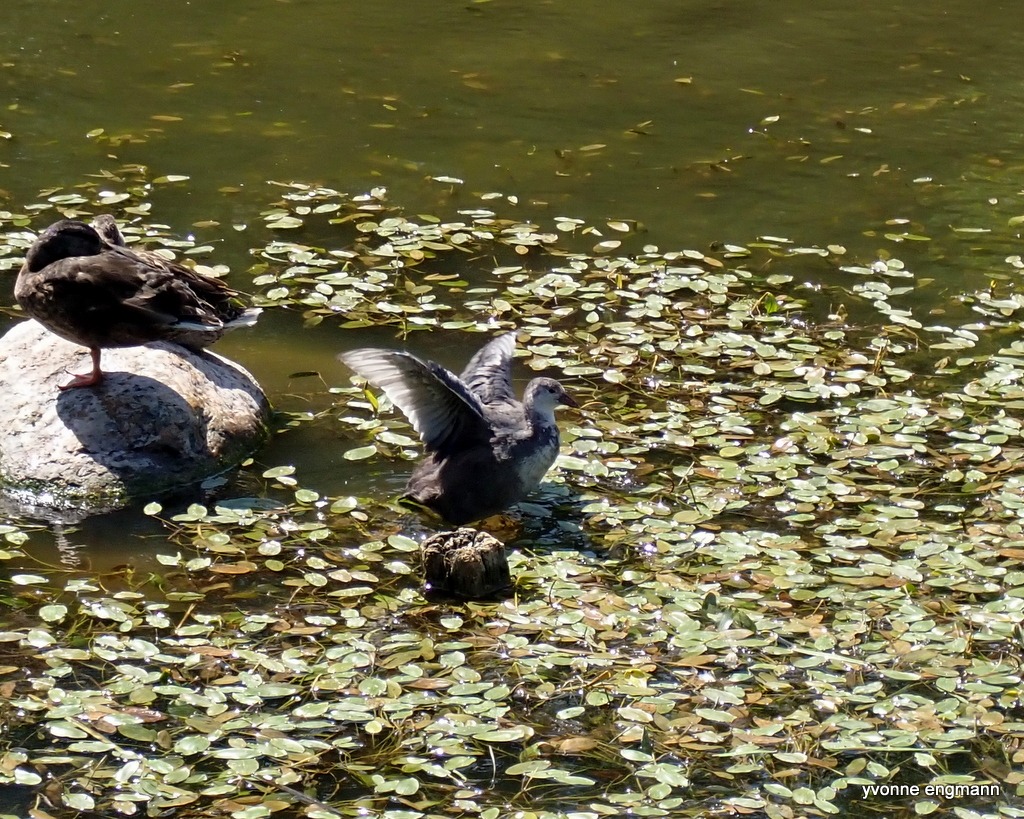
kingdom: Animalia
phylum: Chordata
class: Aves
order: Gruiformes
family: Rallidae
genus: Fulica
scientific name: Fulica atra
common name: Blishøne
